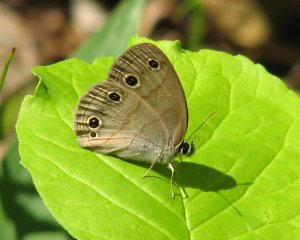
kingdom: Animalia
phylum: Arthropoda
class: Insecta
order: Lepidoptera
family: Nymphalidae
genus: Euptychia
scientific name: Euptychia cymela
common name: Little Wood Satyr
